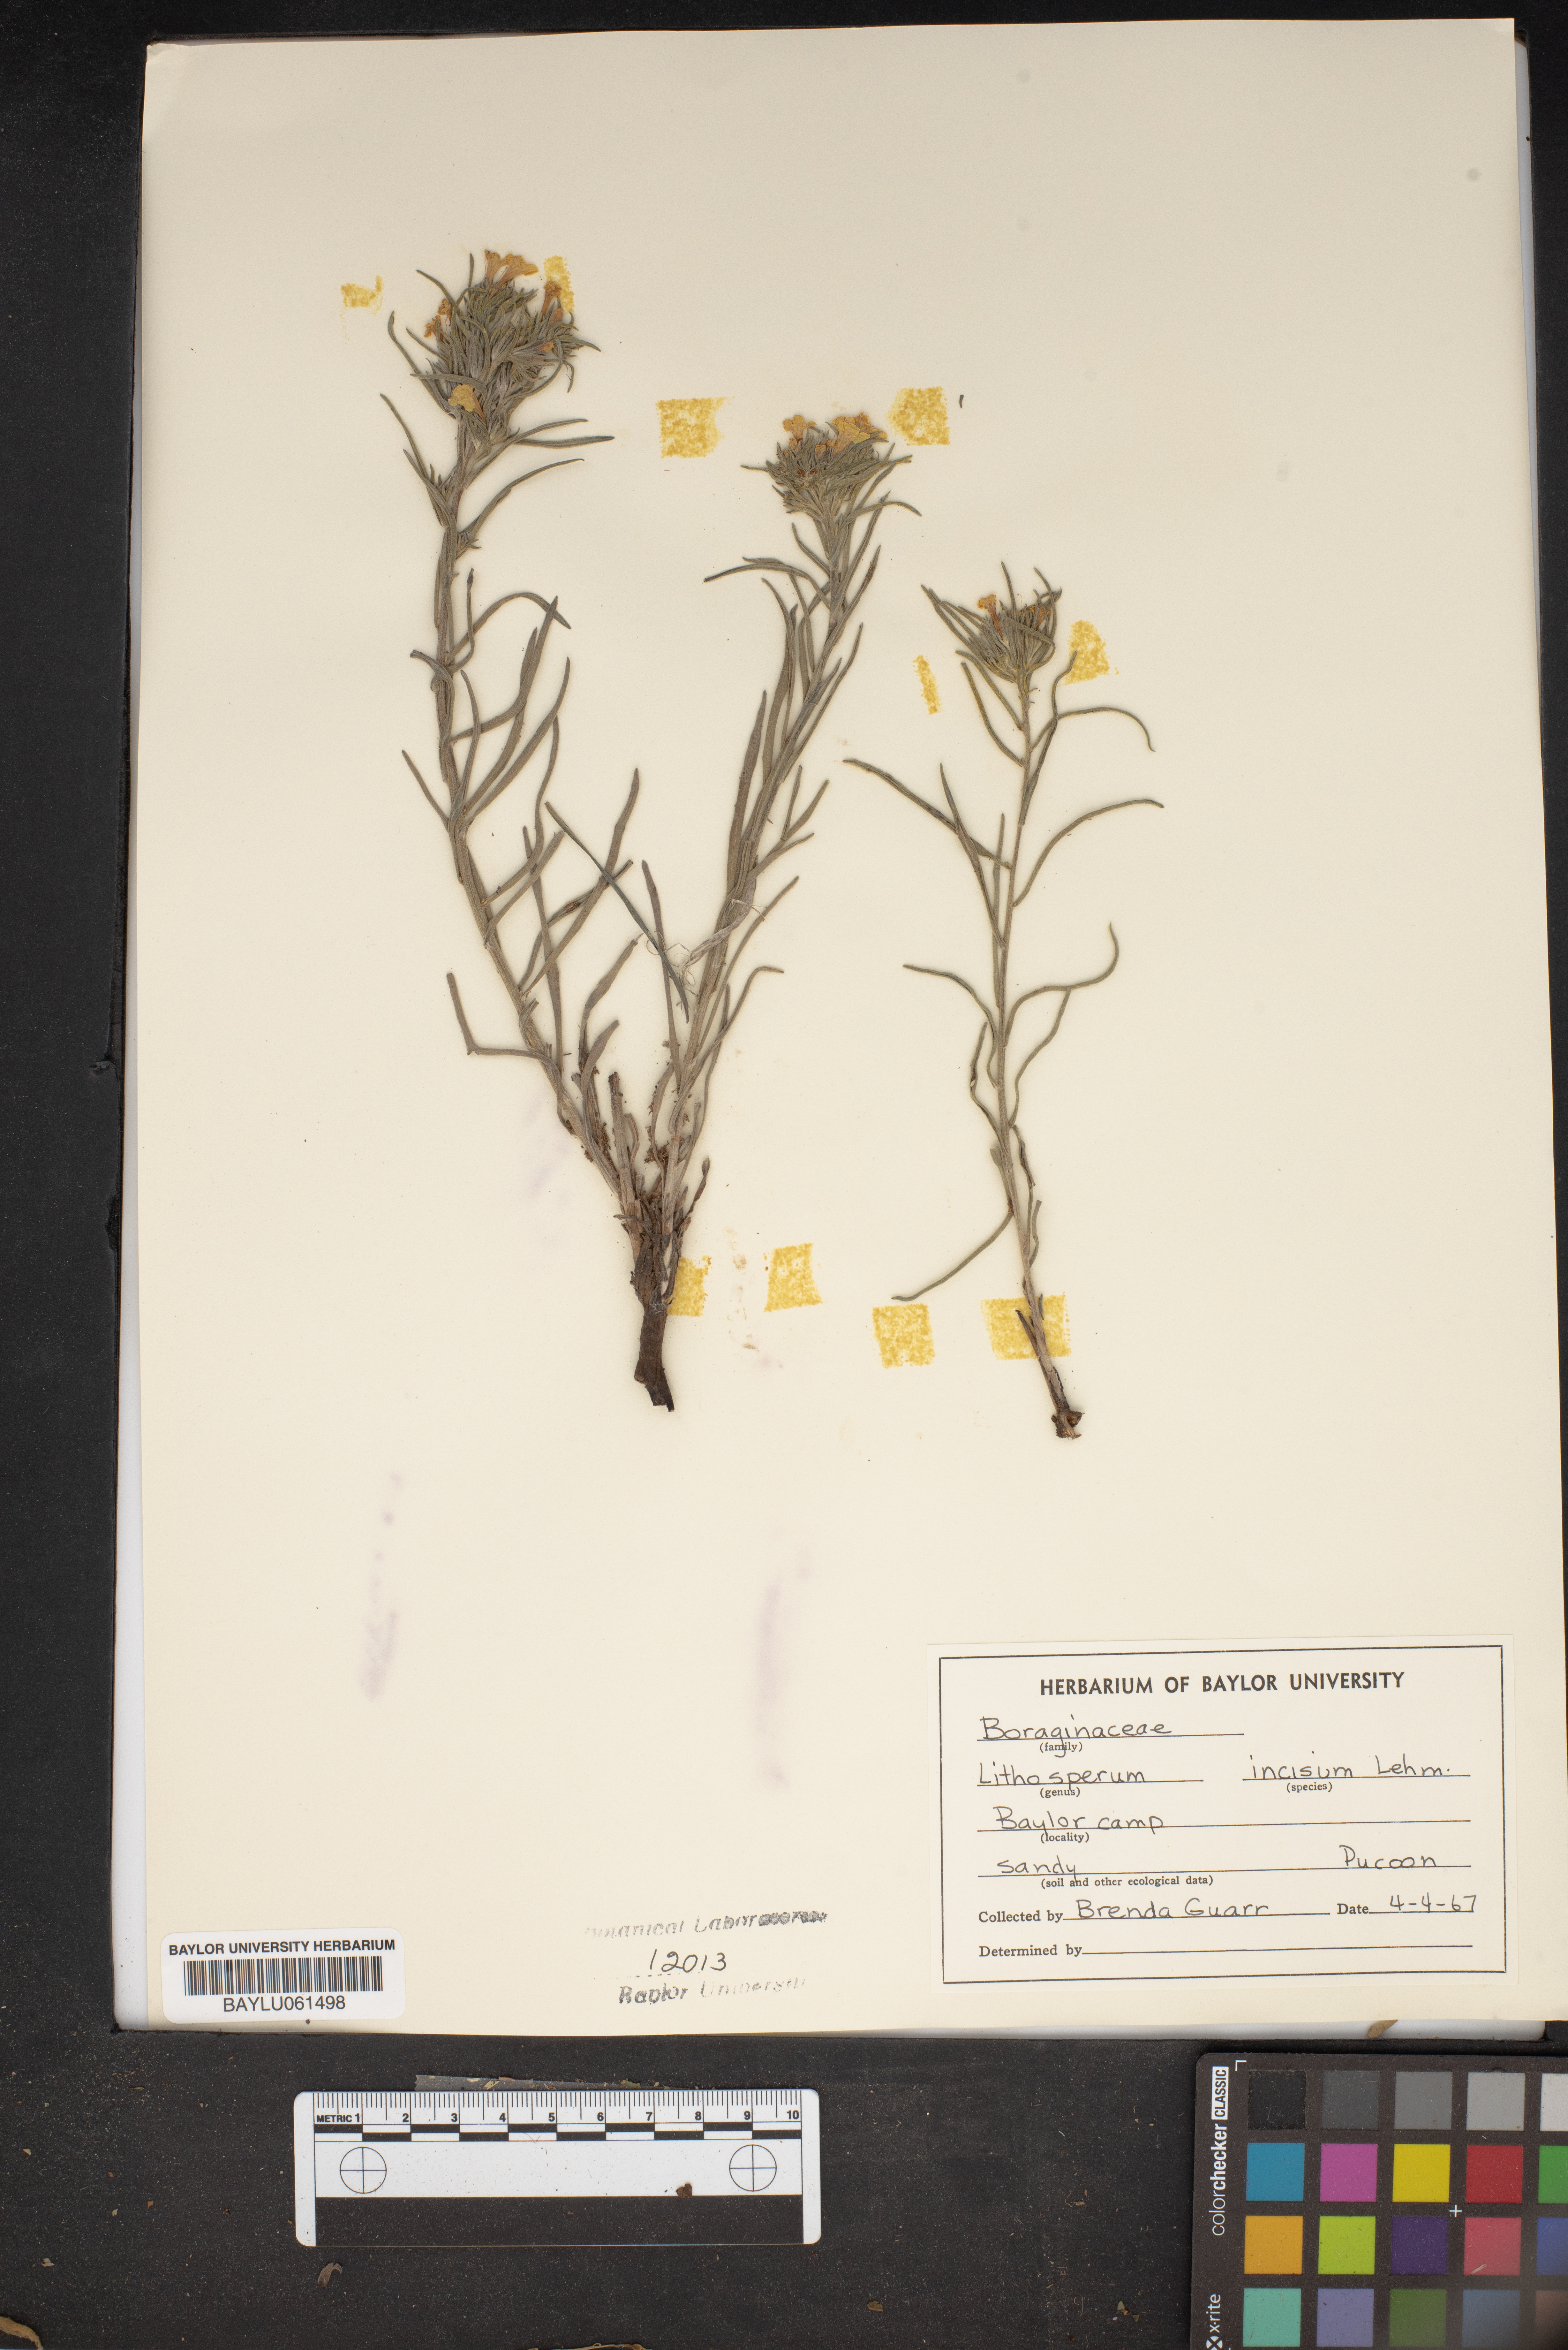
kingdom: Plantae
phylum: Tracheophyta
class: Magnoliopsida
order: Boraginales
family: Boraginaceae
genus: Lithospermum
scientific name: Lithospermum incisum
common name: Fringed gromwell
